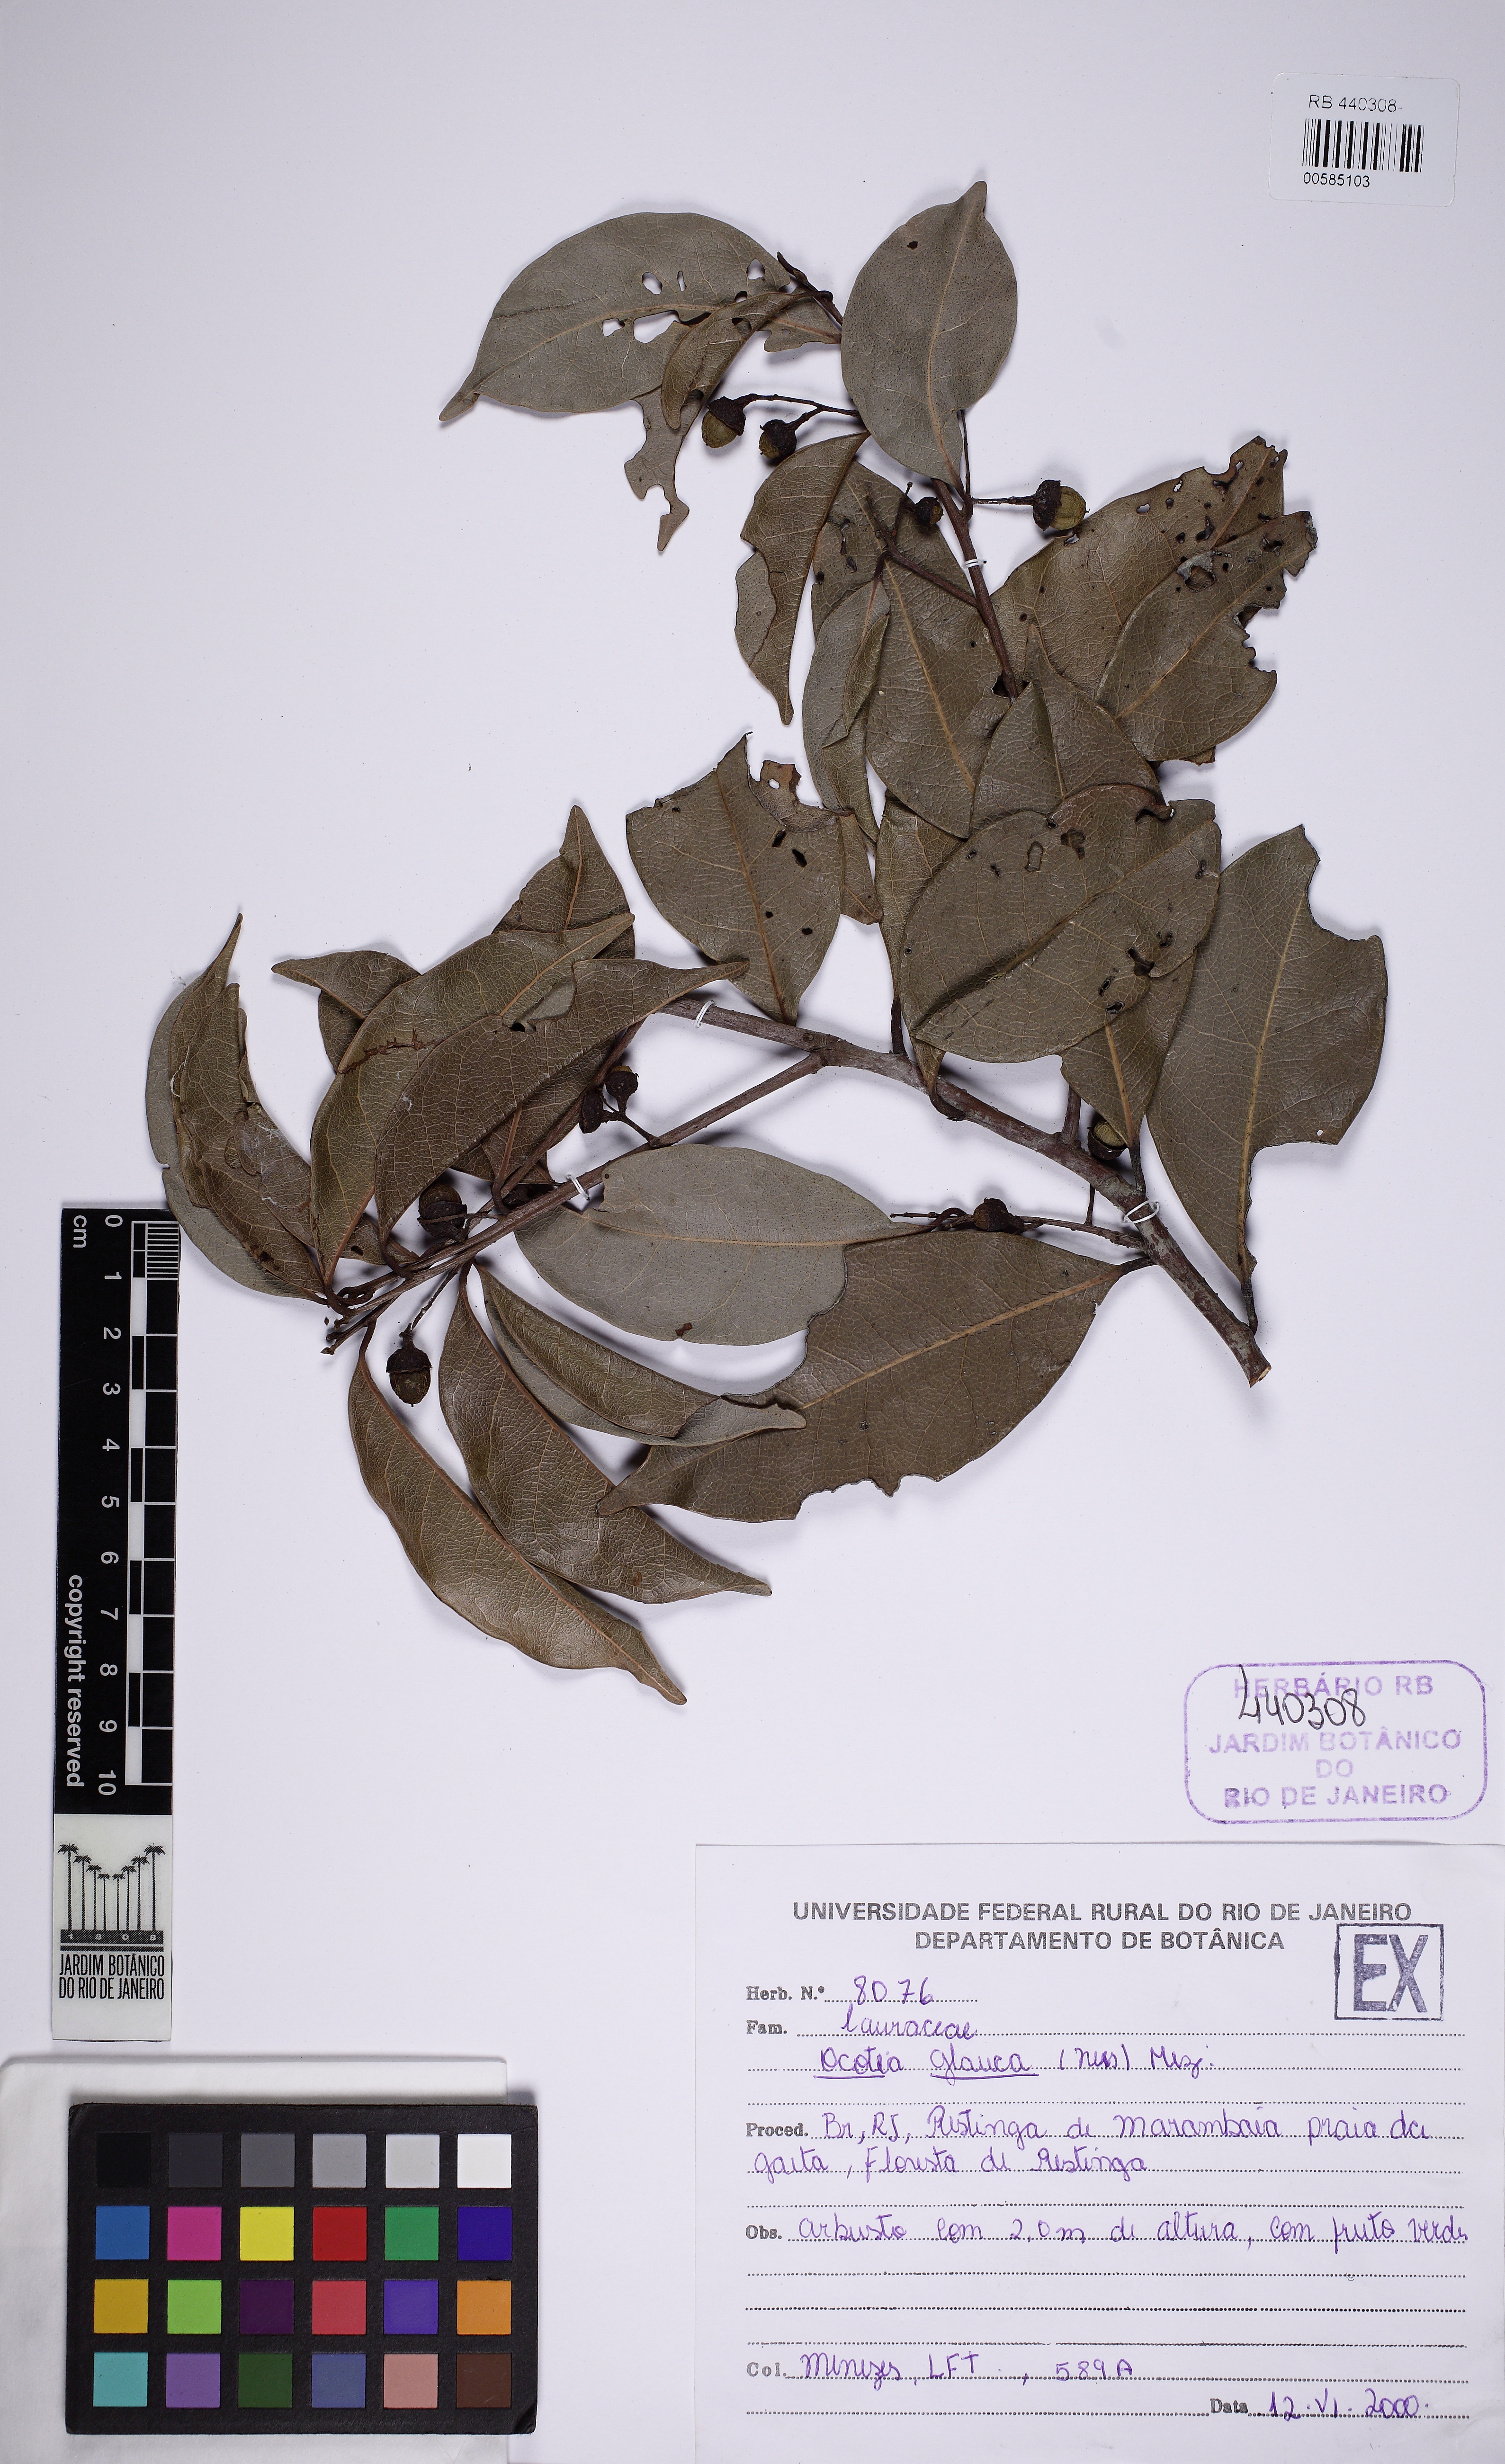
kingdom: Plantae
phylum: Tracheophyta
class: Magnoliopsida
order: Laurales
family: Lauraceae
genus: Mespilodaphne
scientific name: Mespilodaphne glauca
